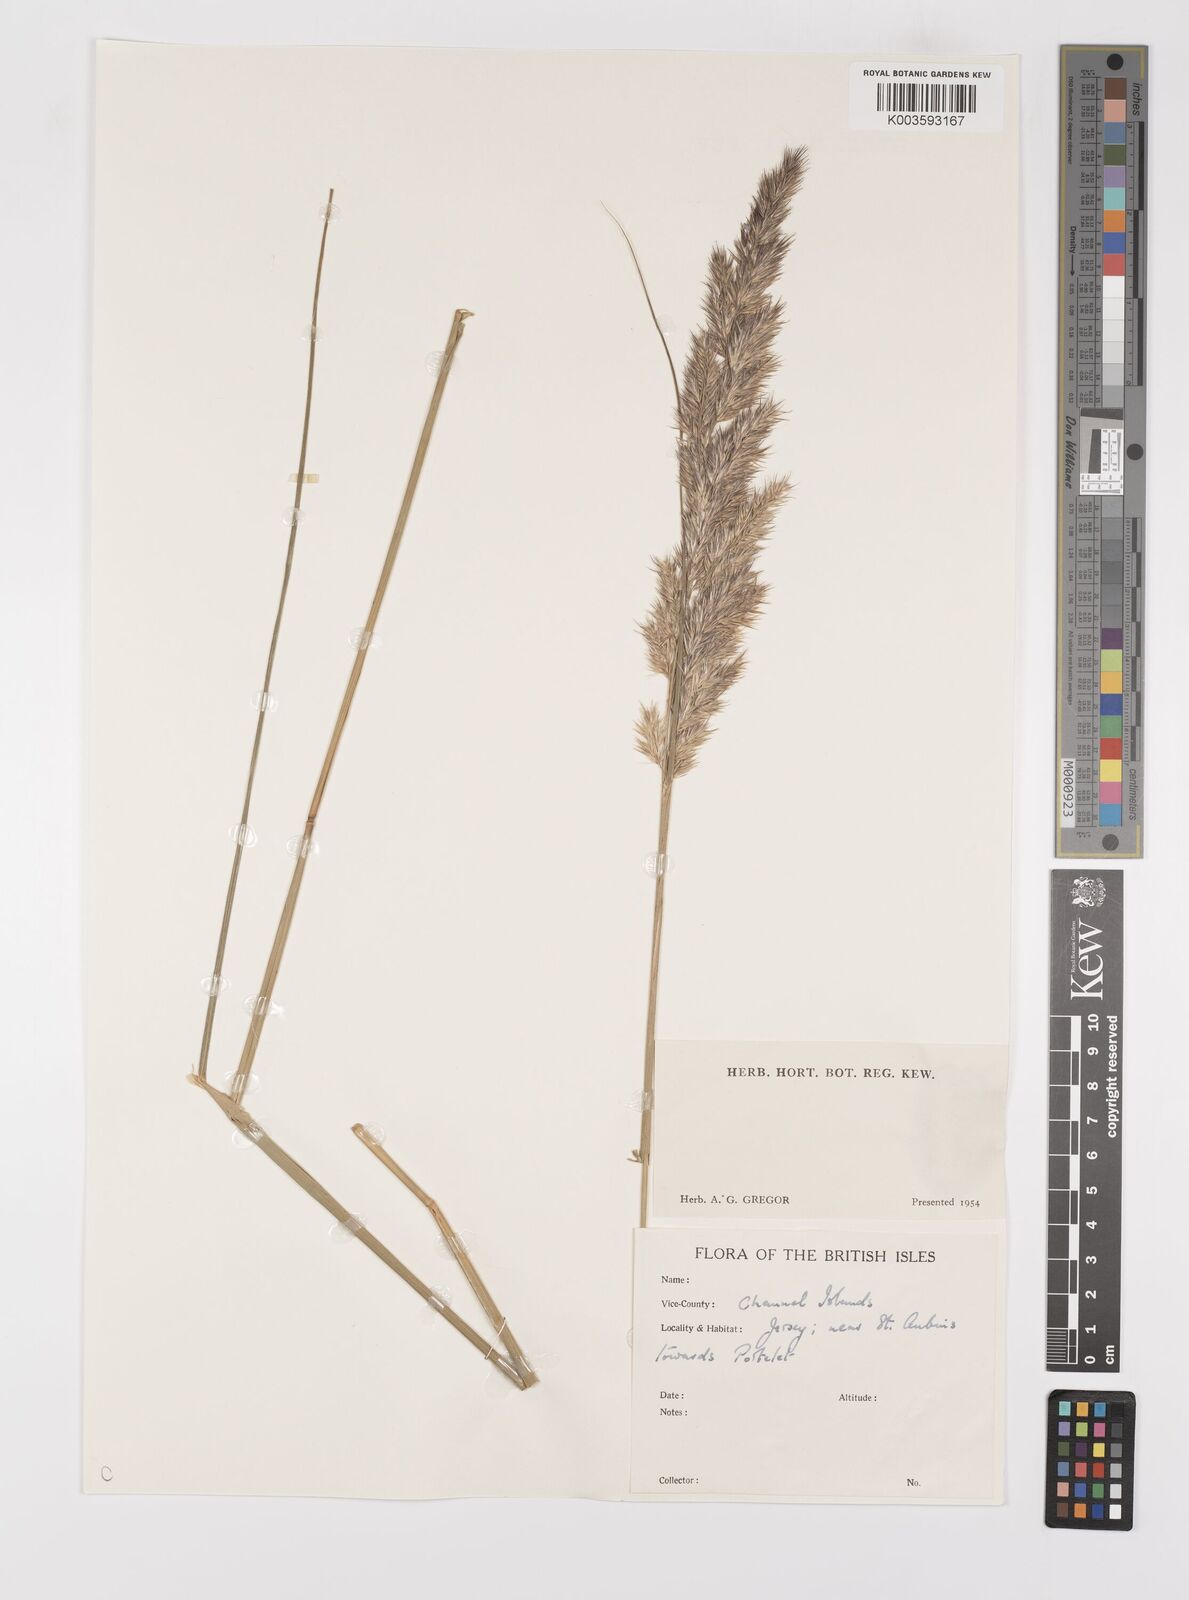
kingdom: Plantae
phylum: Tracheophyta
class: Liliopsida
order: Poales
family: Poaceae
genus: Calamagrostis
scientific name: Calamagrostis
